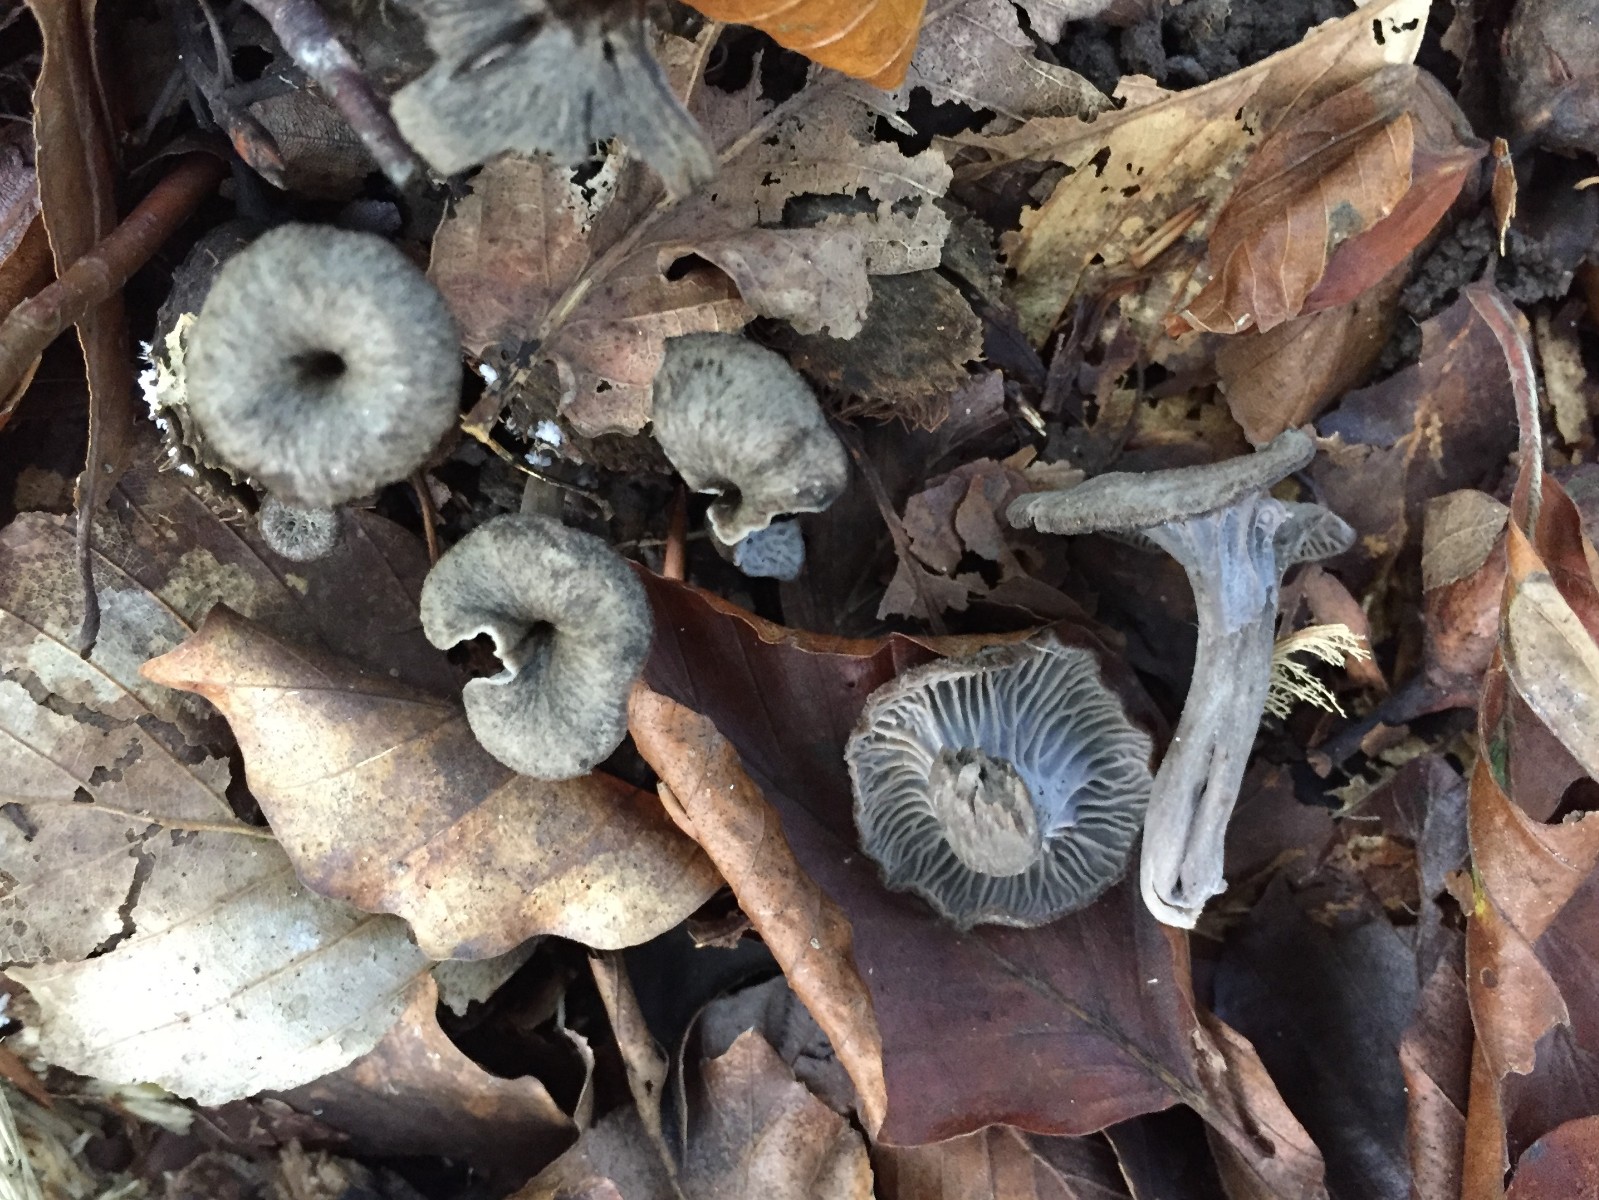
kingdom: Fungi
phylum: Basidiomycota
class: Agaricomycetes
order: Cantharellales
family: Hydnaceae
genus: Cantharellus
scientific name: Cantharellus cinereus
